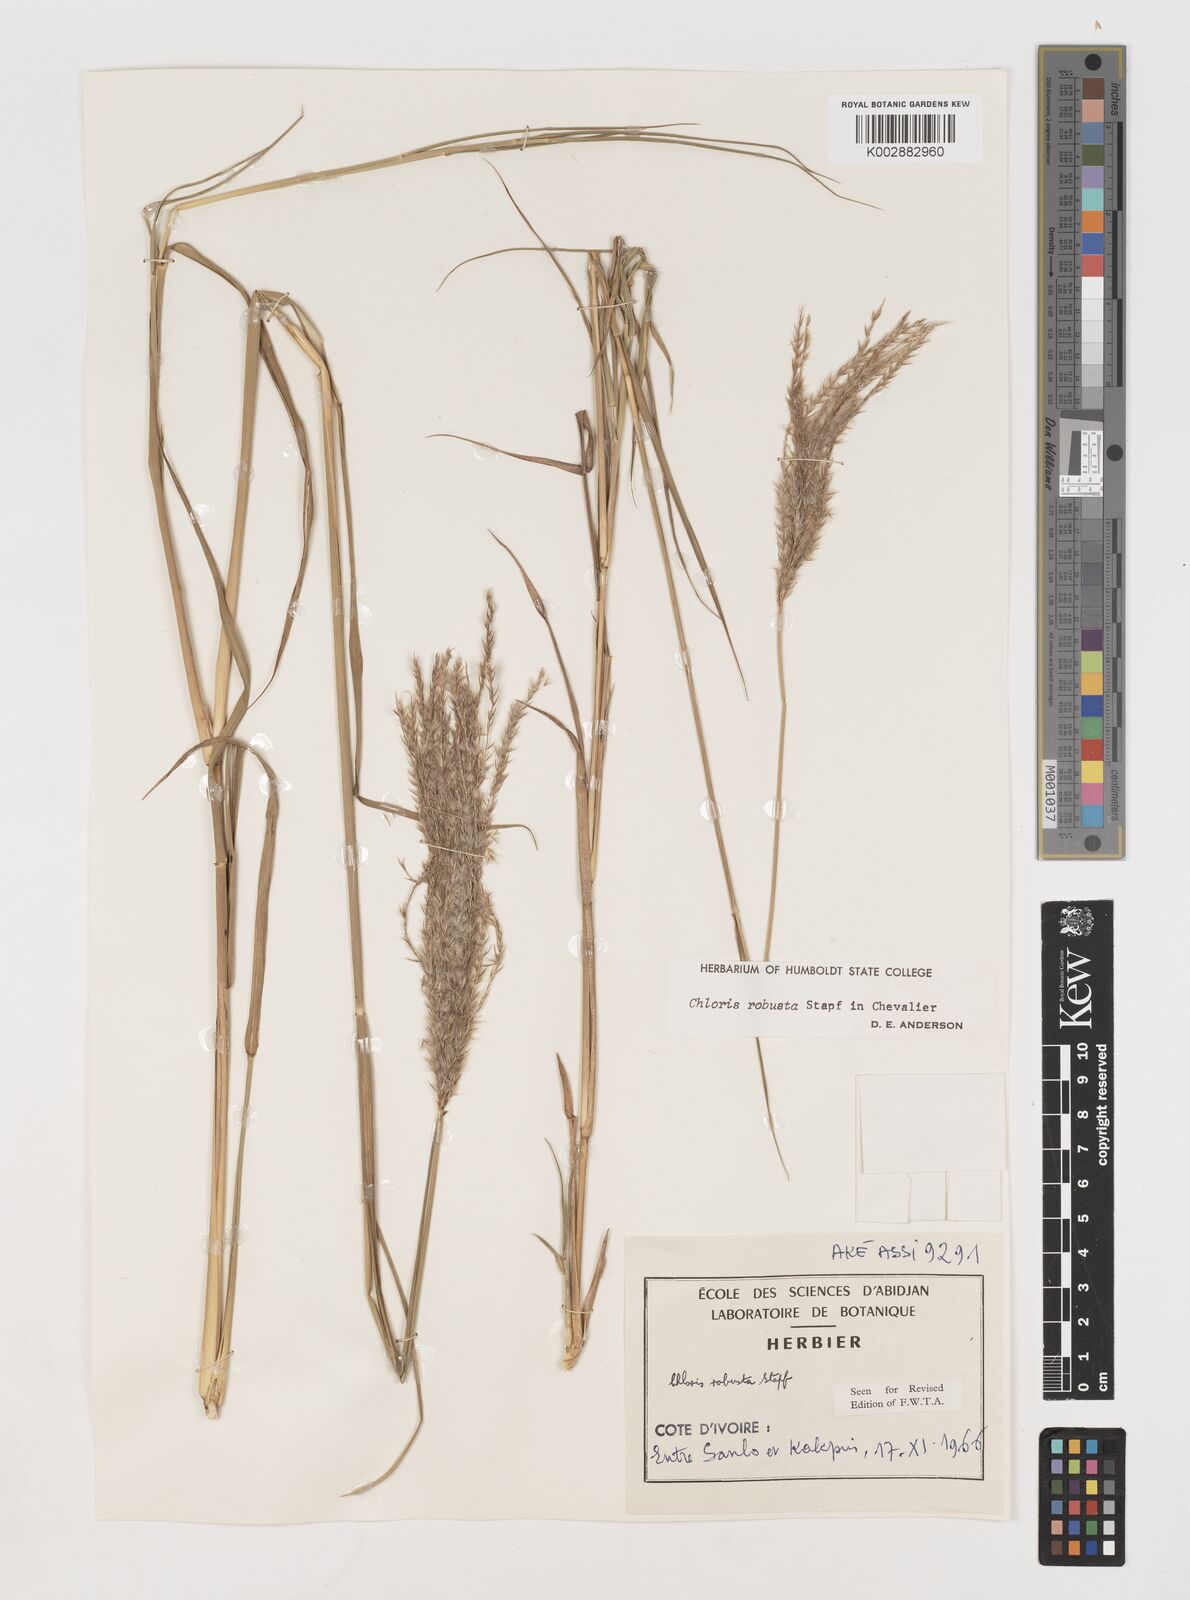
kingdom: Plantae
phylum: Tracheophyta
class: Liliopsida
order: Poales
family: Poaceae
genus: Chloris
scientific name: Chloris robusta
